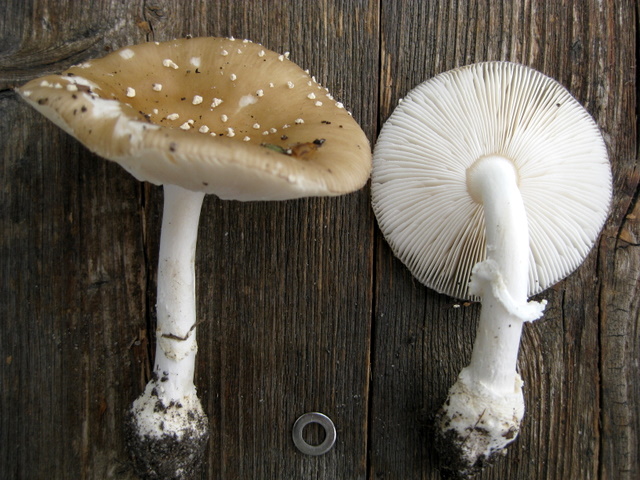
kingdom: Fungi
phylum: Basidiomycota
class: Agaricomycetes
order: Agaricales
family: Amanitaceae
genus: Amanita
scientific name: Amanita pantherina
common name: panter-fluesvamp
